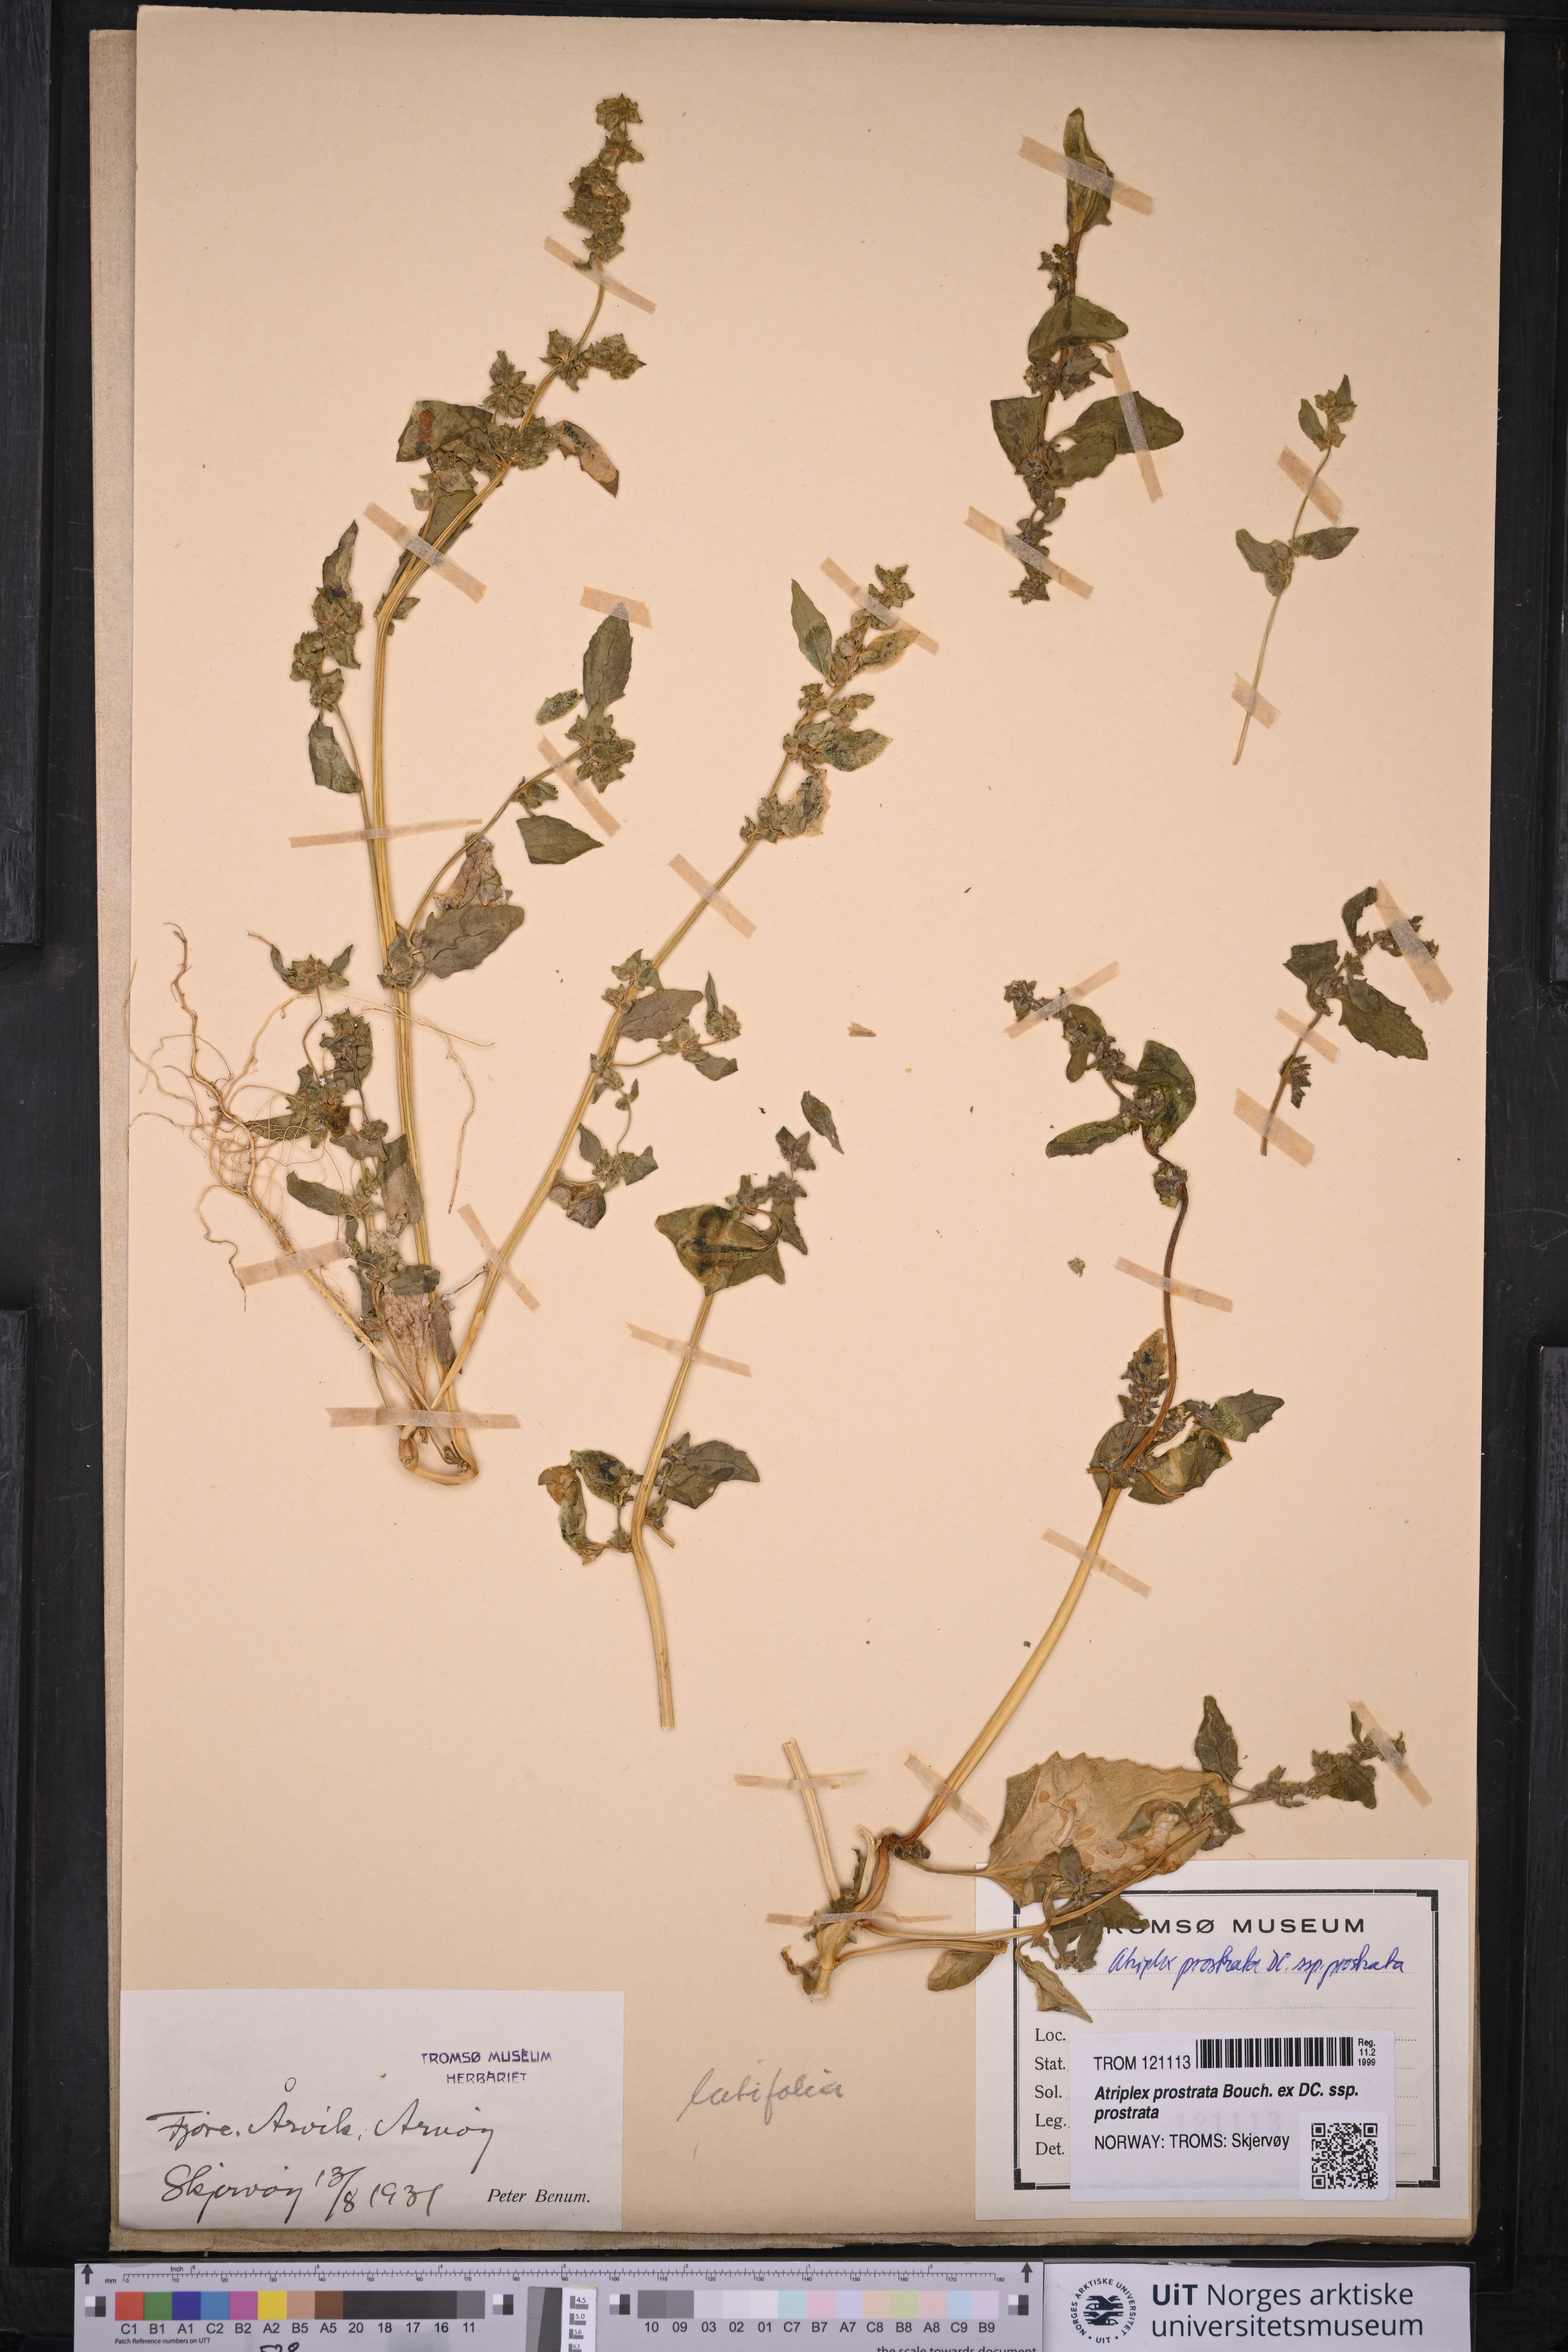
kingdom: Plantae
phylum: Tracheophyta
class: Magnoliopsida
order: Caryophyllales
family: Amaranthaceae
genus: Atriplex
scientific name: Atriplex prostrata
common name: Spear-leaved orache
